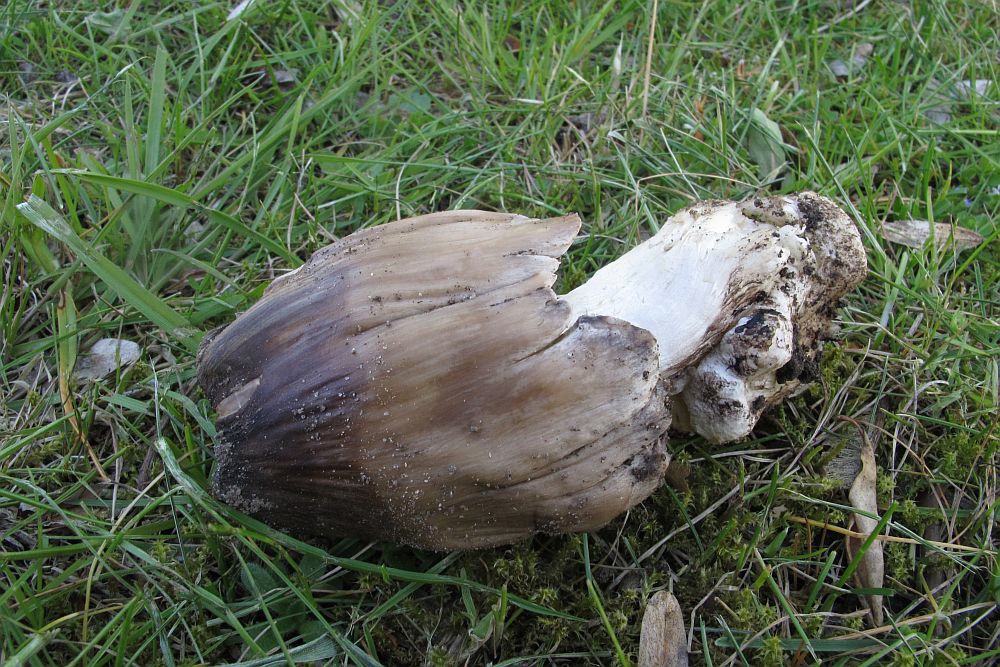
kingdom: Fungi
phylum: Basidiomycota
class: Agaricomycetes
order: Agaricales
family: Psathyrellaceae
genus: Coprinopsis
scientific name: Coprinopsis atramentaria
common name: almindelig blækhat
